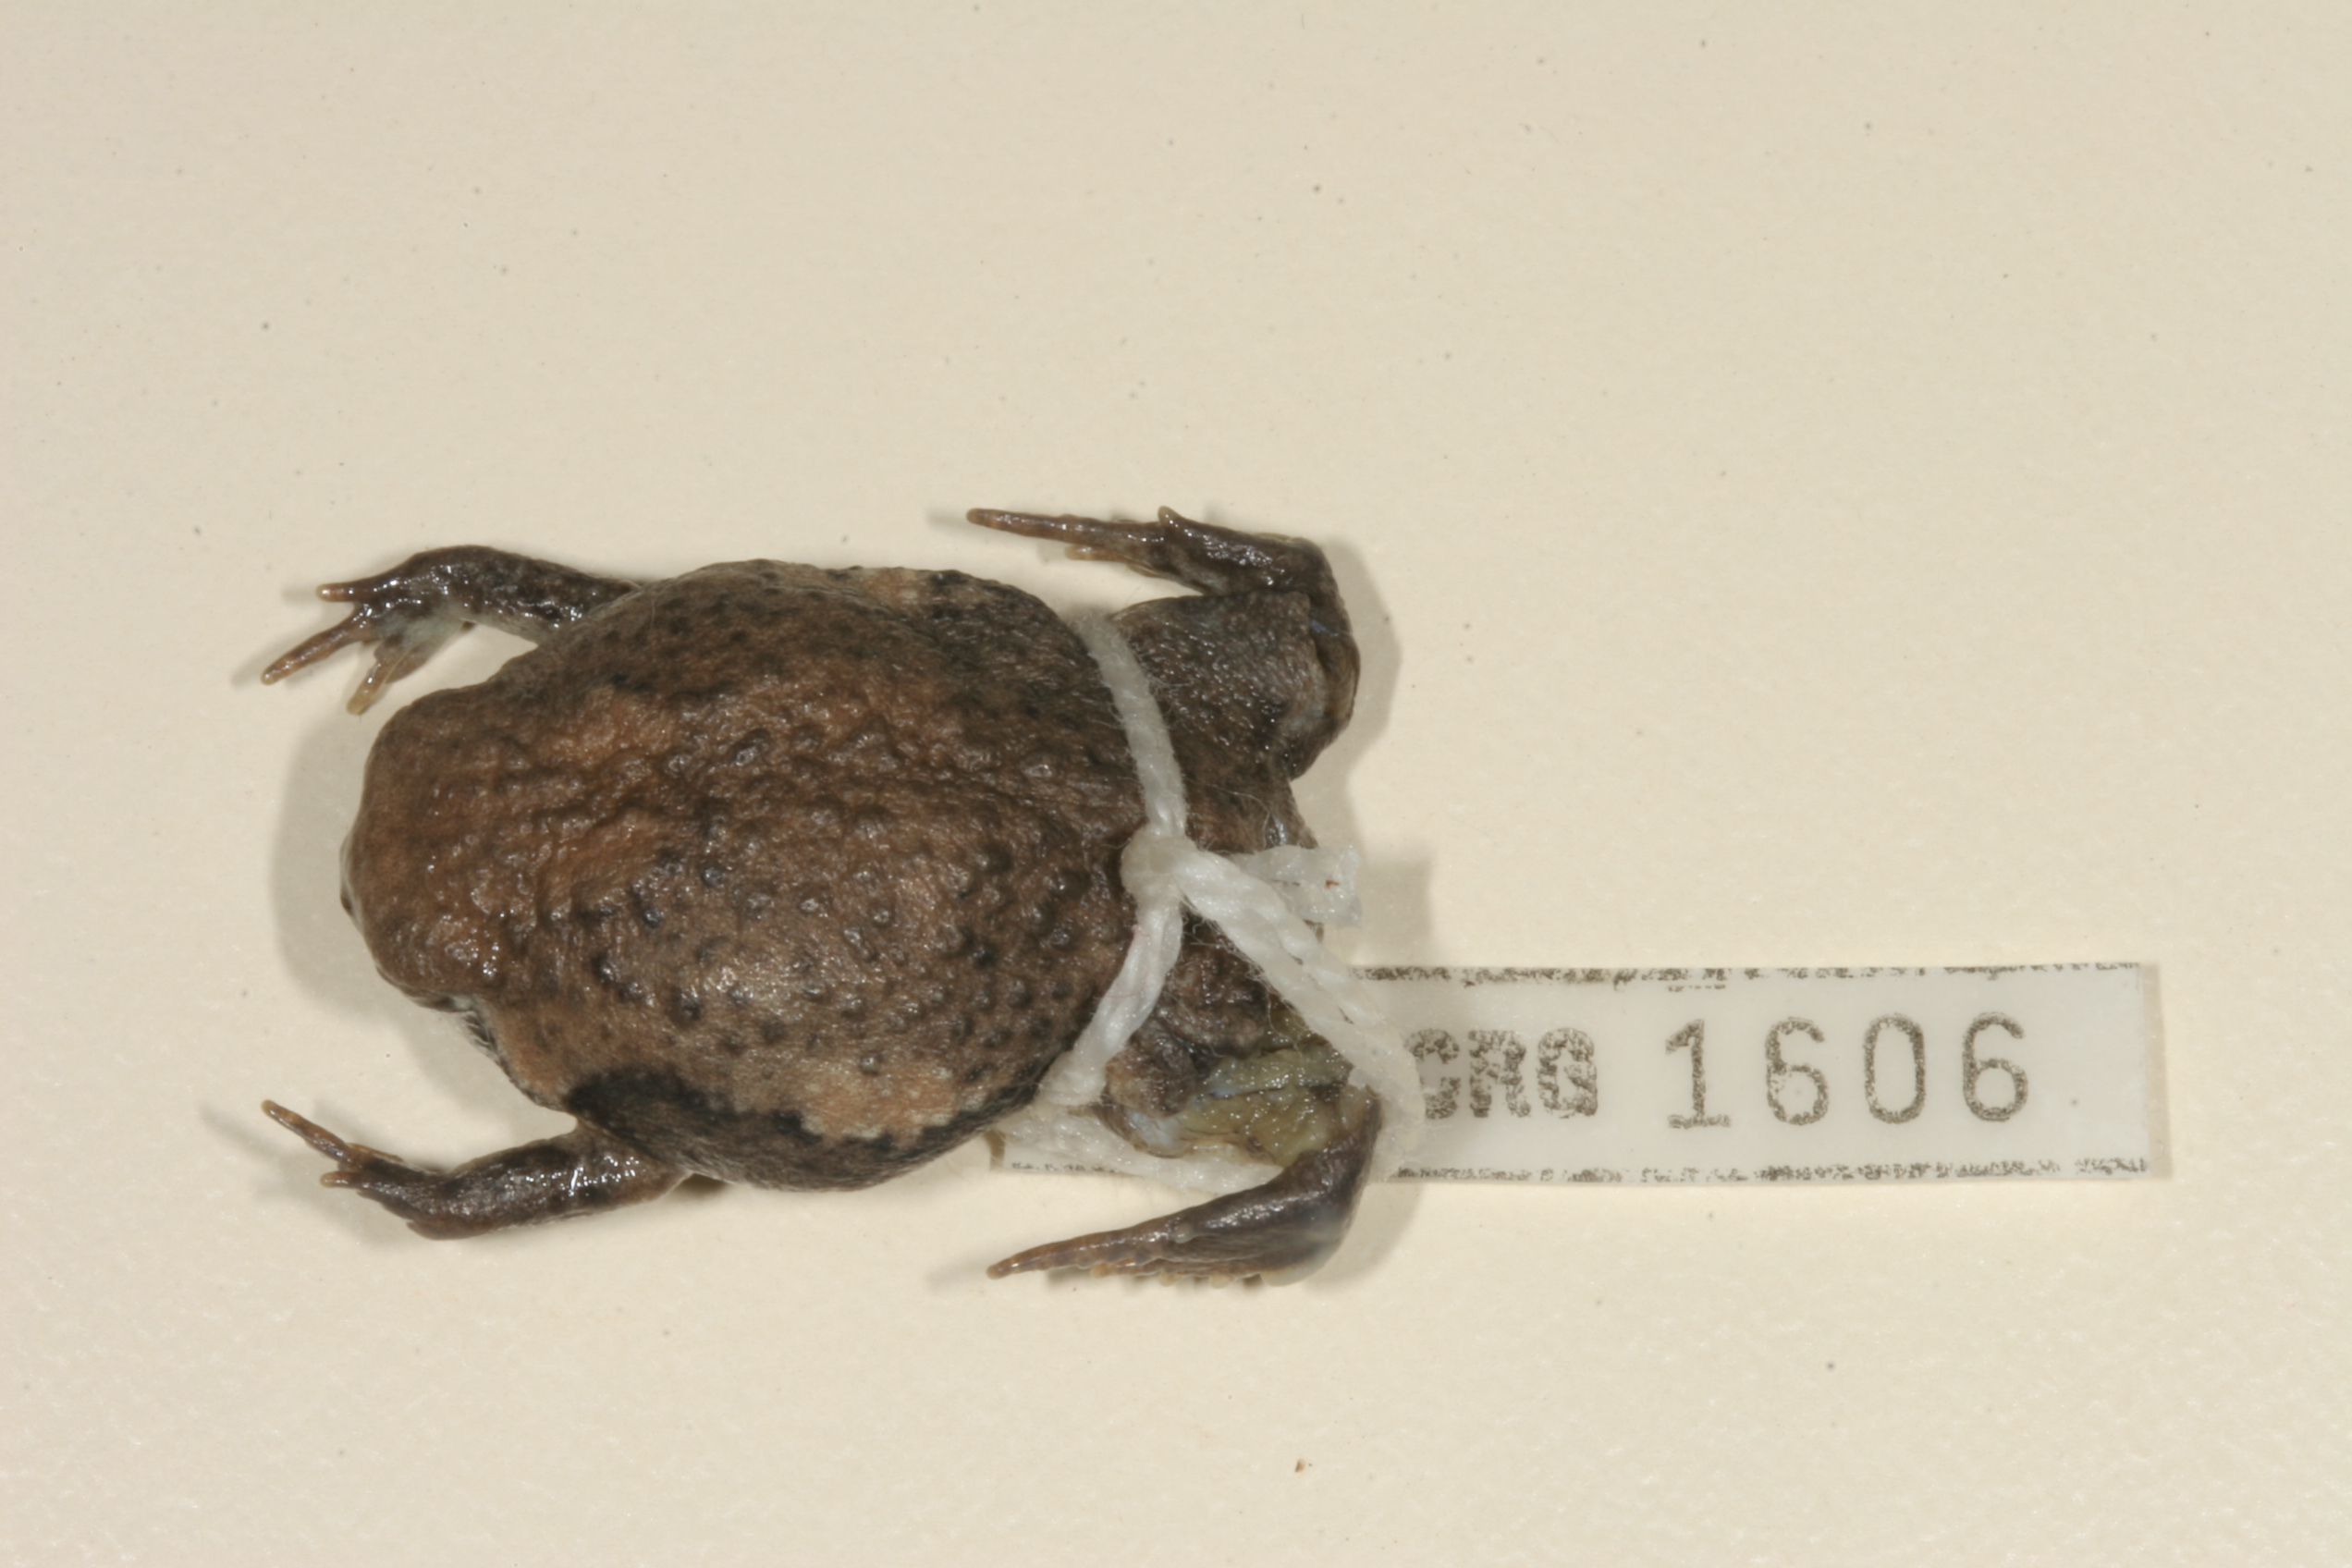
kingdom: Animalia
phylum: Chordata
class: Amphibia
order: Anura
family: Brevicipitidae
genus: Breviceps
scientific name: Breviceps mossambicus
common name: Mozambique rain frog
